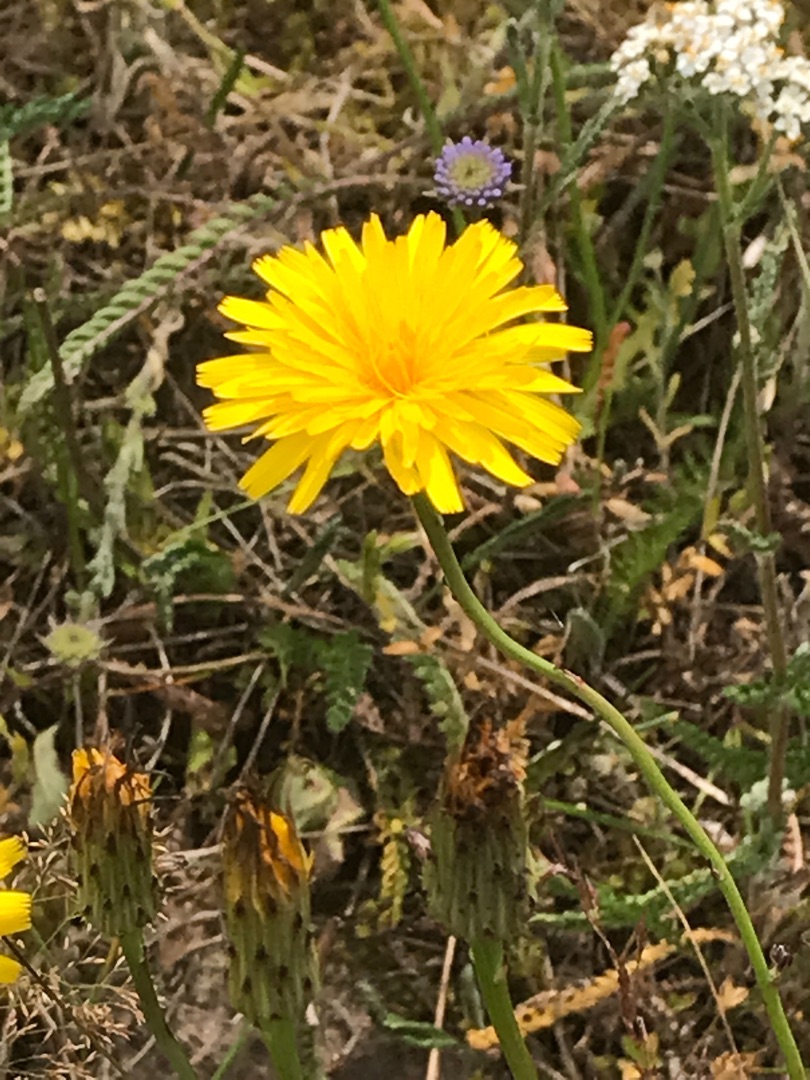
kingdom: Plantae
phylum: Tracheophyta
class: Magnoliopsida
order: Asterales
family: Asteraceae
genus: Hypochaeris
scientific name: Hypochaeris radicata
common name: Almindelig kongepen
